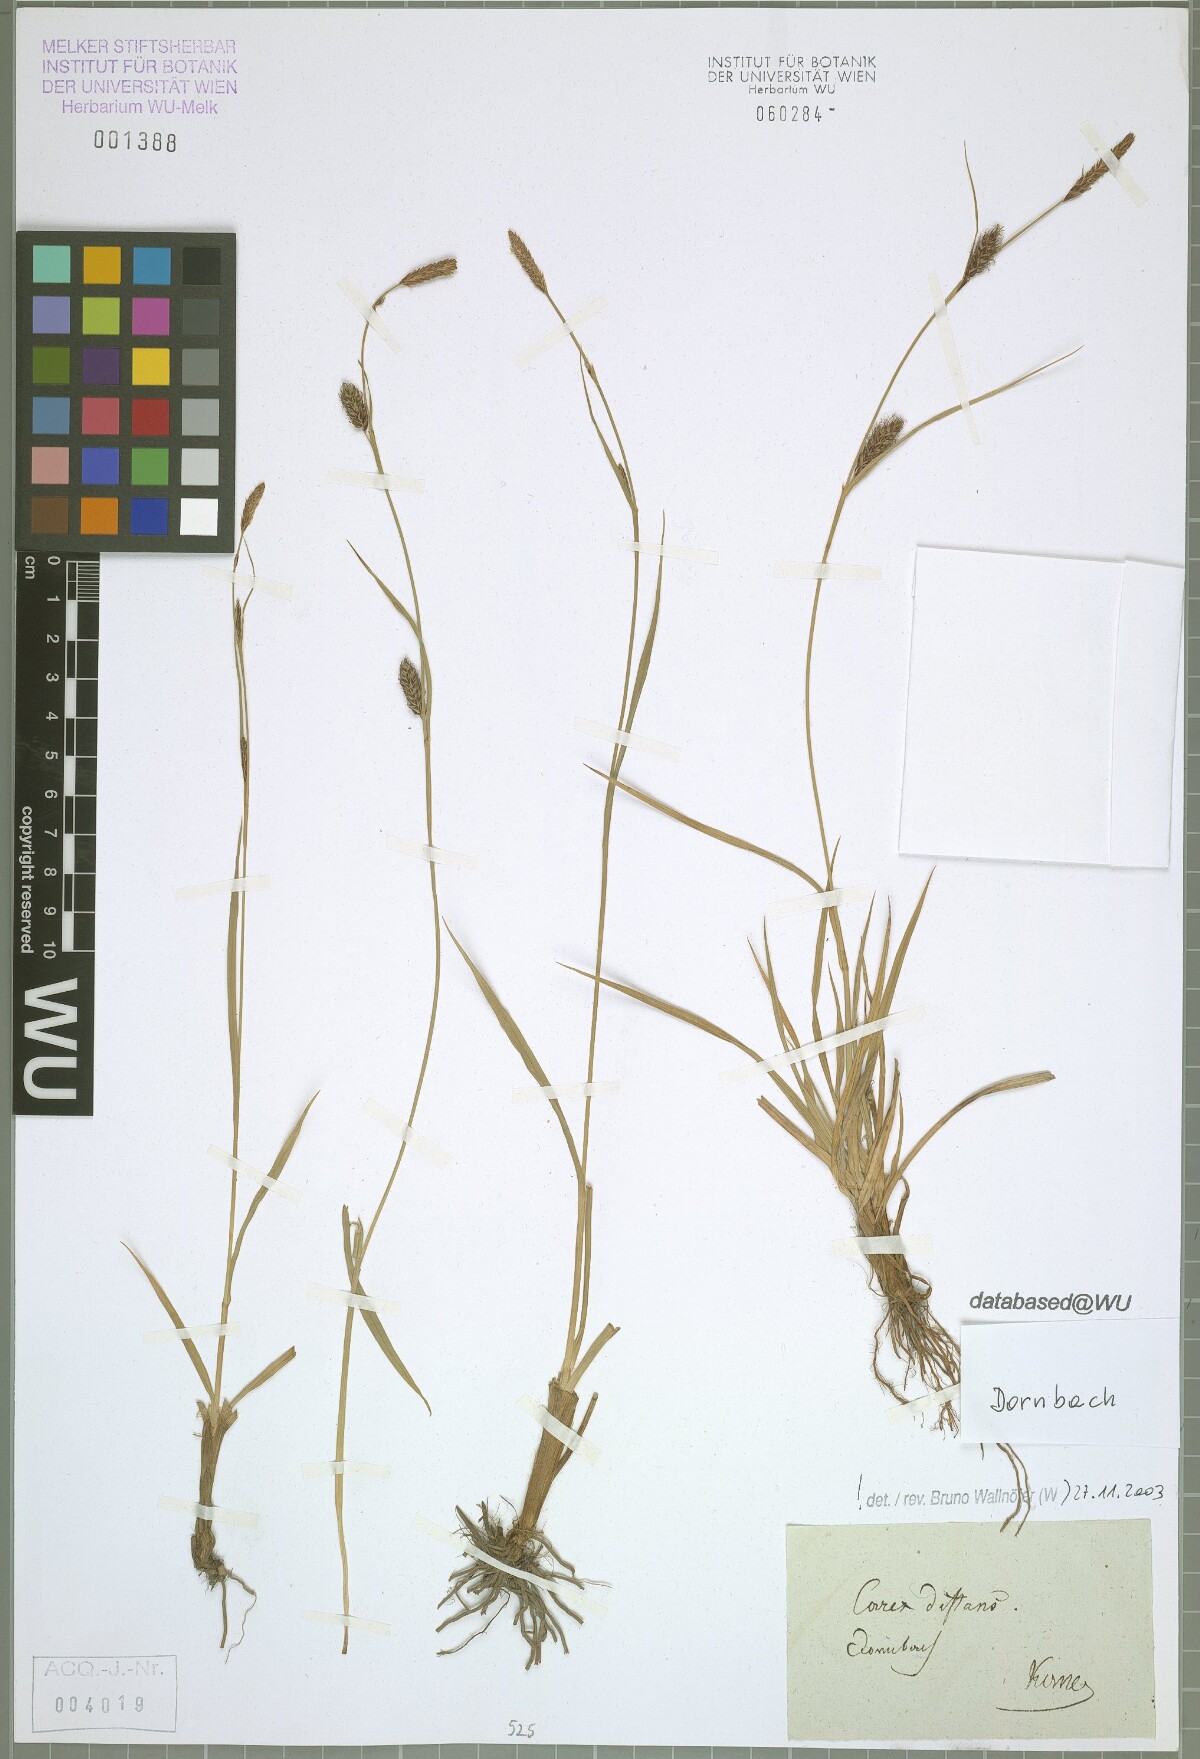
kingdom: Plantae
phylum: Tracheophyta
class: Liliopsida
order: Poales
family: Cyperaceae
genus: Carex
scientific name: Carex distans
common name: Distant sedge
